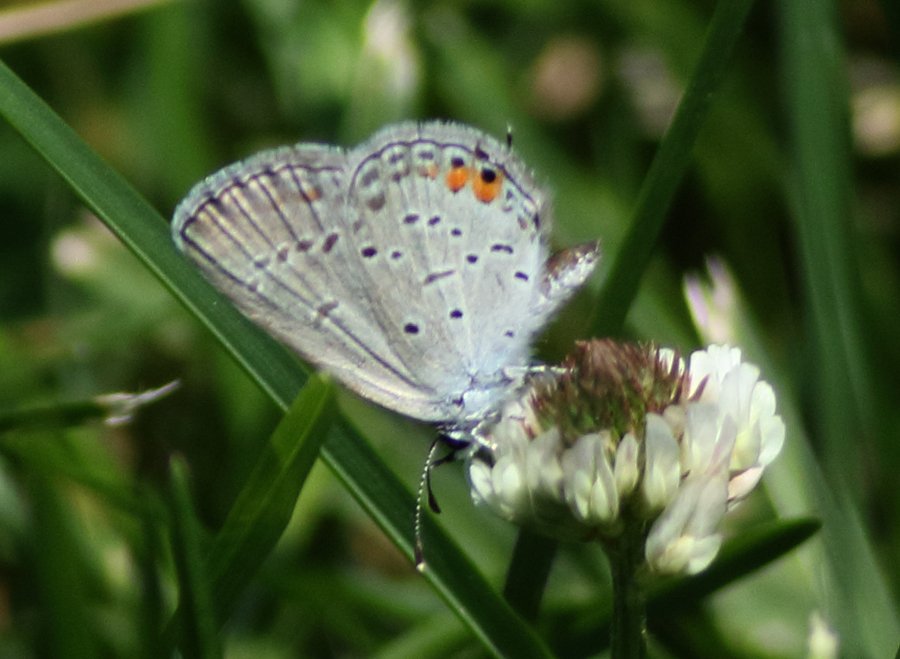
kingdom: Animalia
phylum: Arthropoda
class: Insecta
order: Lepidoptera
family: Lycaenidae
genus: Elkalyce
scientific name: Elkalyce comyntas
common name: Eastern Tailed-Blue
